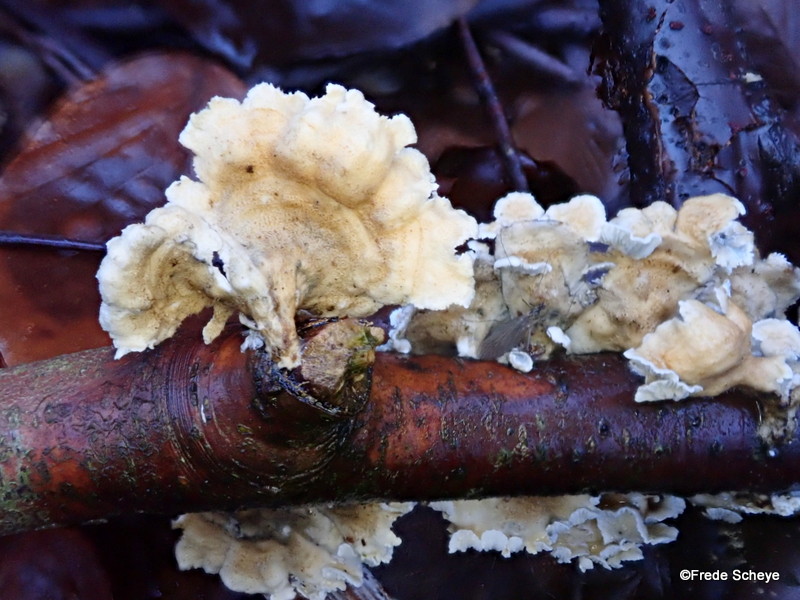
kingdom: Fungi
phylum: Basidiomycota
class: Agaricomycetes
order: Amylocorticiales
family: Amylocorticiaceae
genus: Plicaturopsis
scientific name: Plicaturopsis crispa
